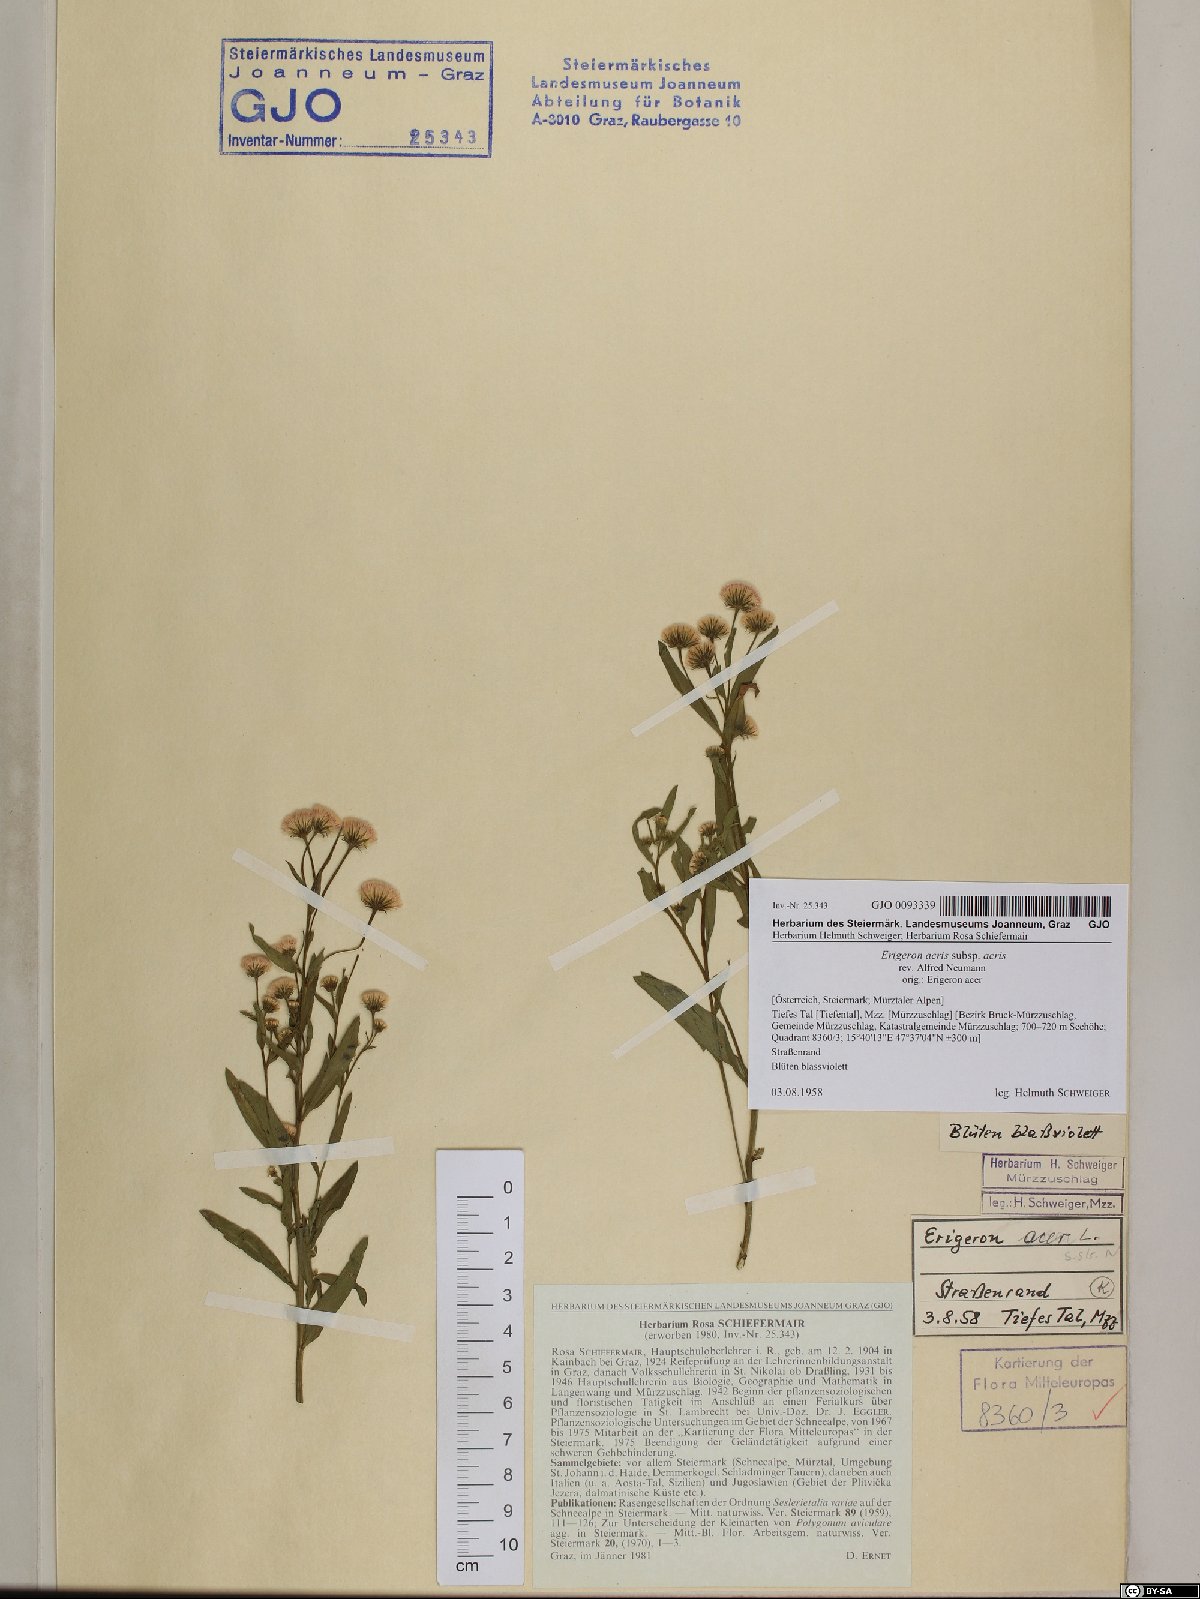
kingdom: Plantae
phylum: Tracheophyta
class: Magnoliopsida
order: Asterales
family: Asteraceae
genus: Erigeron
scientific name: Erigeron acris
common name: Blue fleabane
